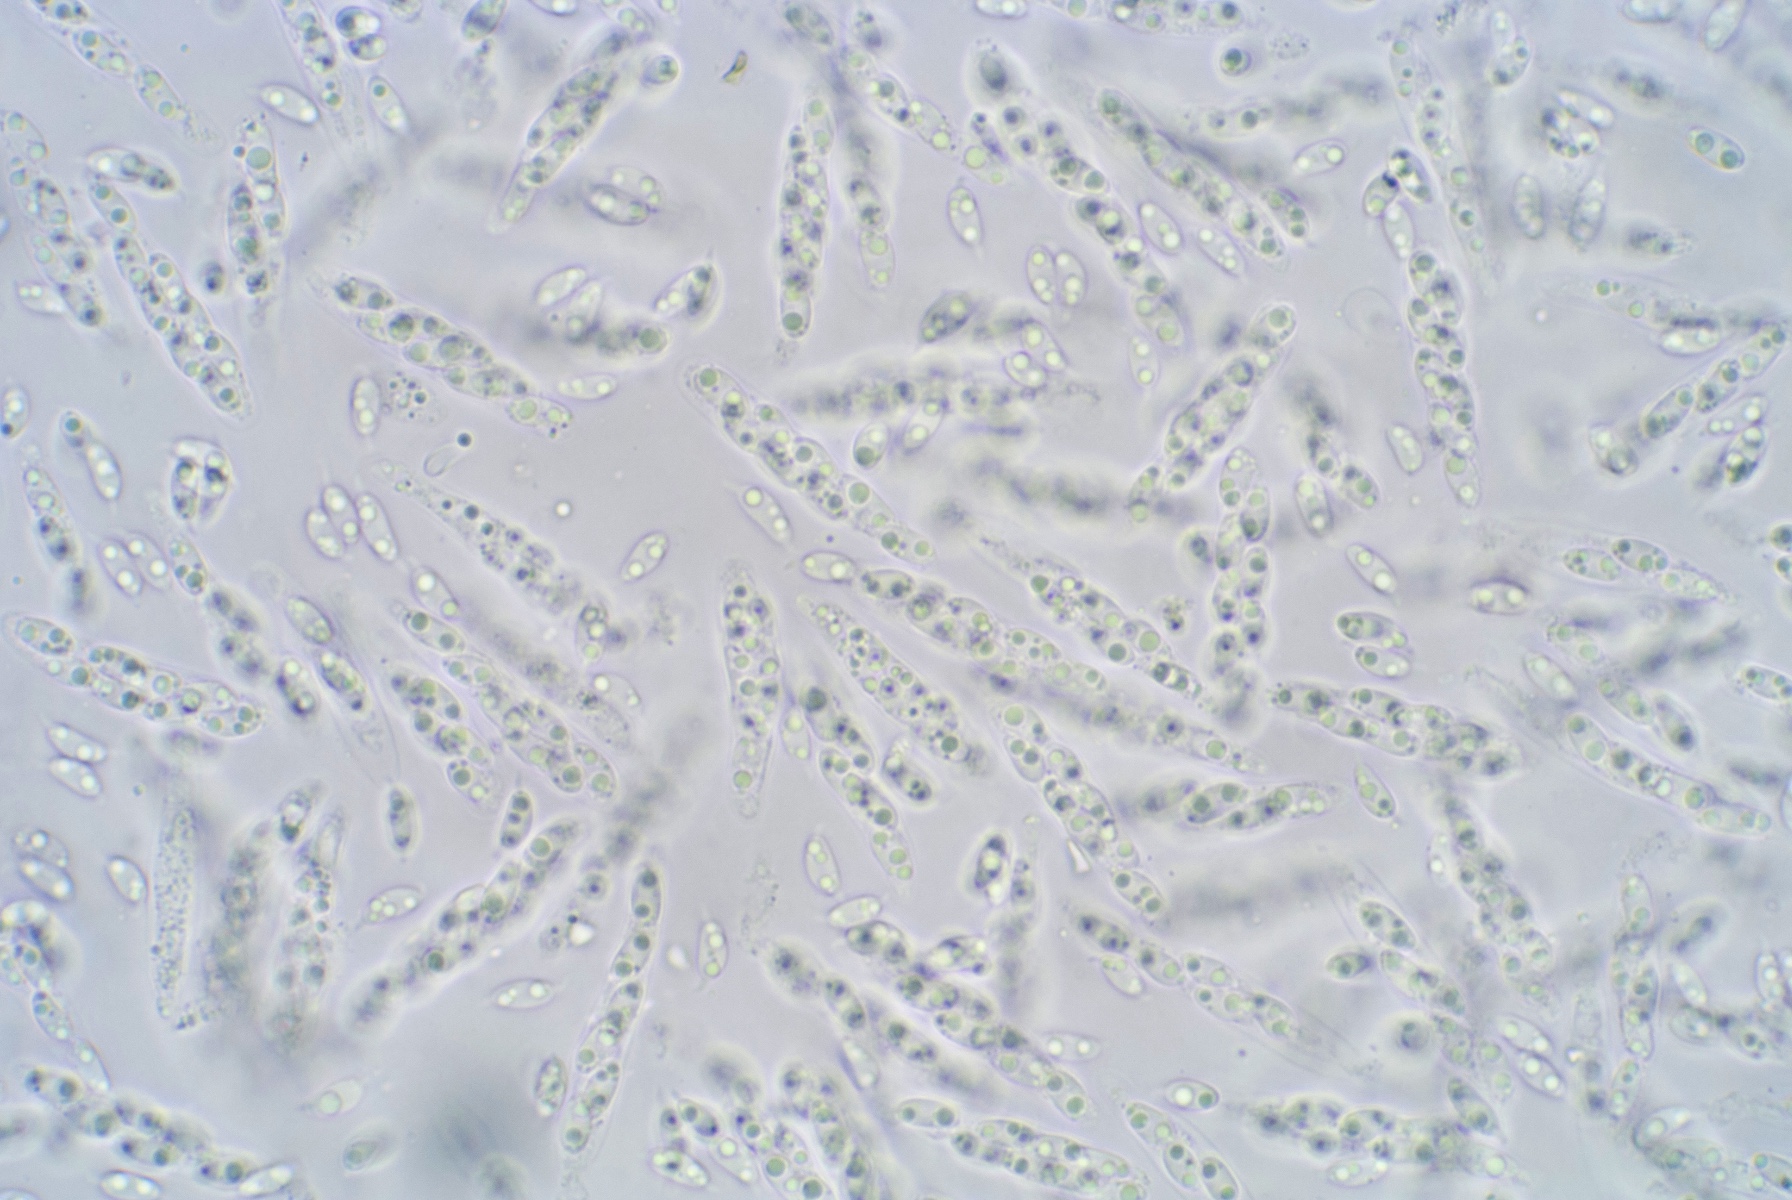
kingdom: Fungi
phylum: Ascomycota
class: Sordariomycetes
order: Diaporthales
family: Gnomoniaceae
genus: Gnomoniella
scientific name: Gnomoniella rubicola
